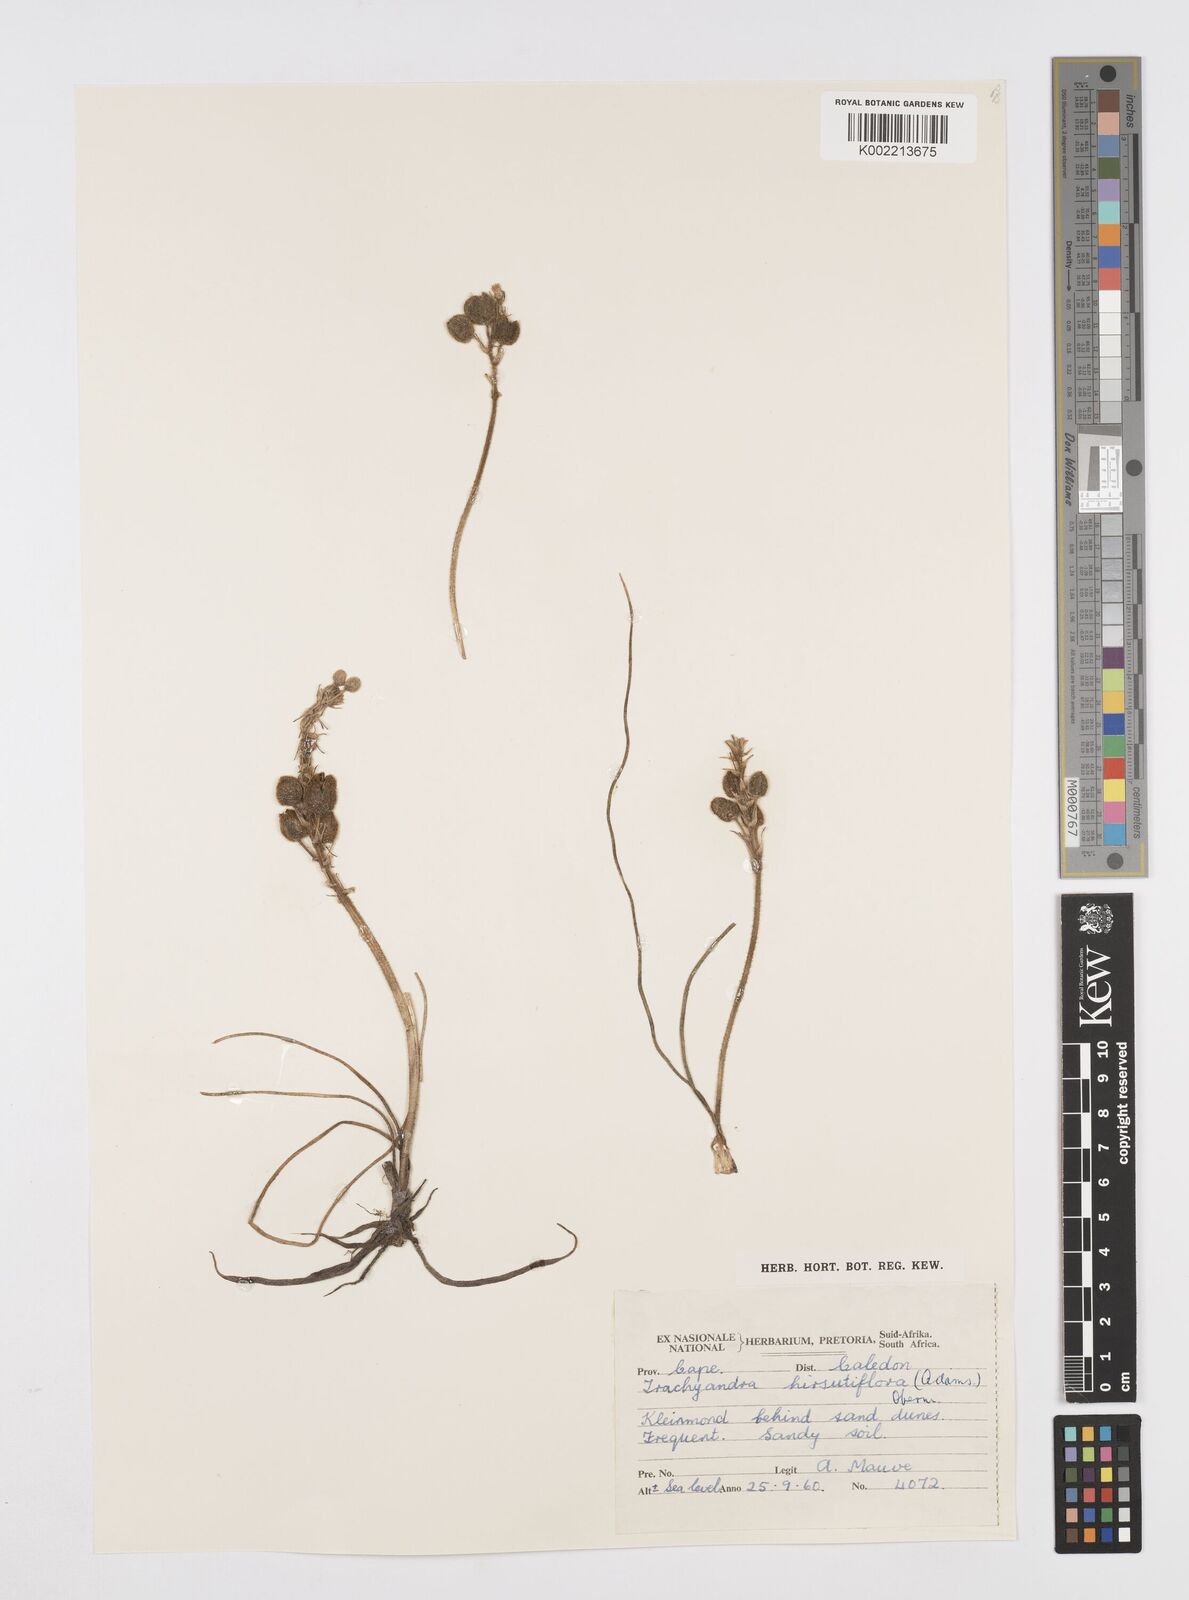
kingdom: Plantae
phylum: Tracheophyta
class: Liliopsida
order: Asparagales
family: Asphodelaceae
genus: Trachyandra
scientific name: Trachyandra hirsutiflora
